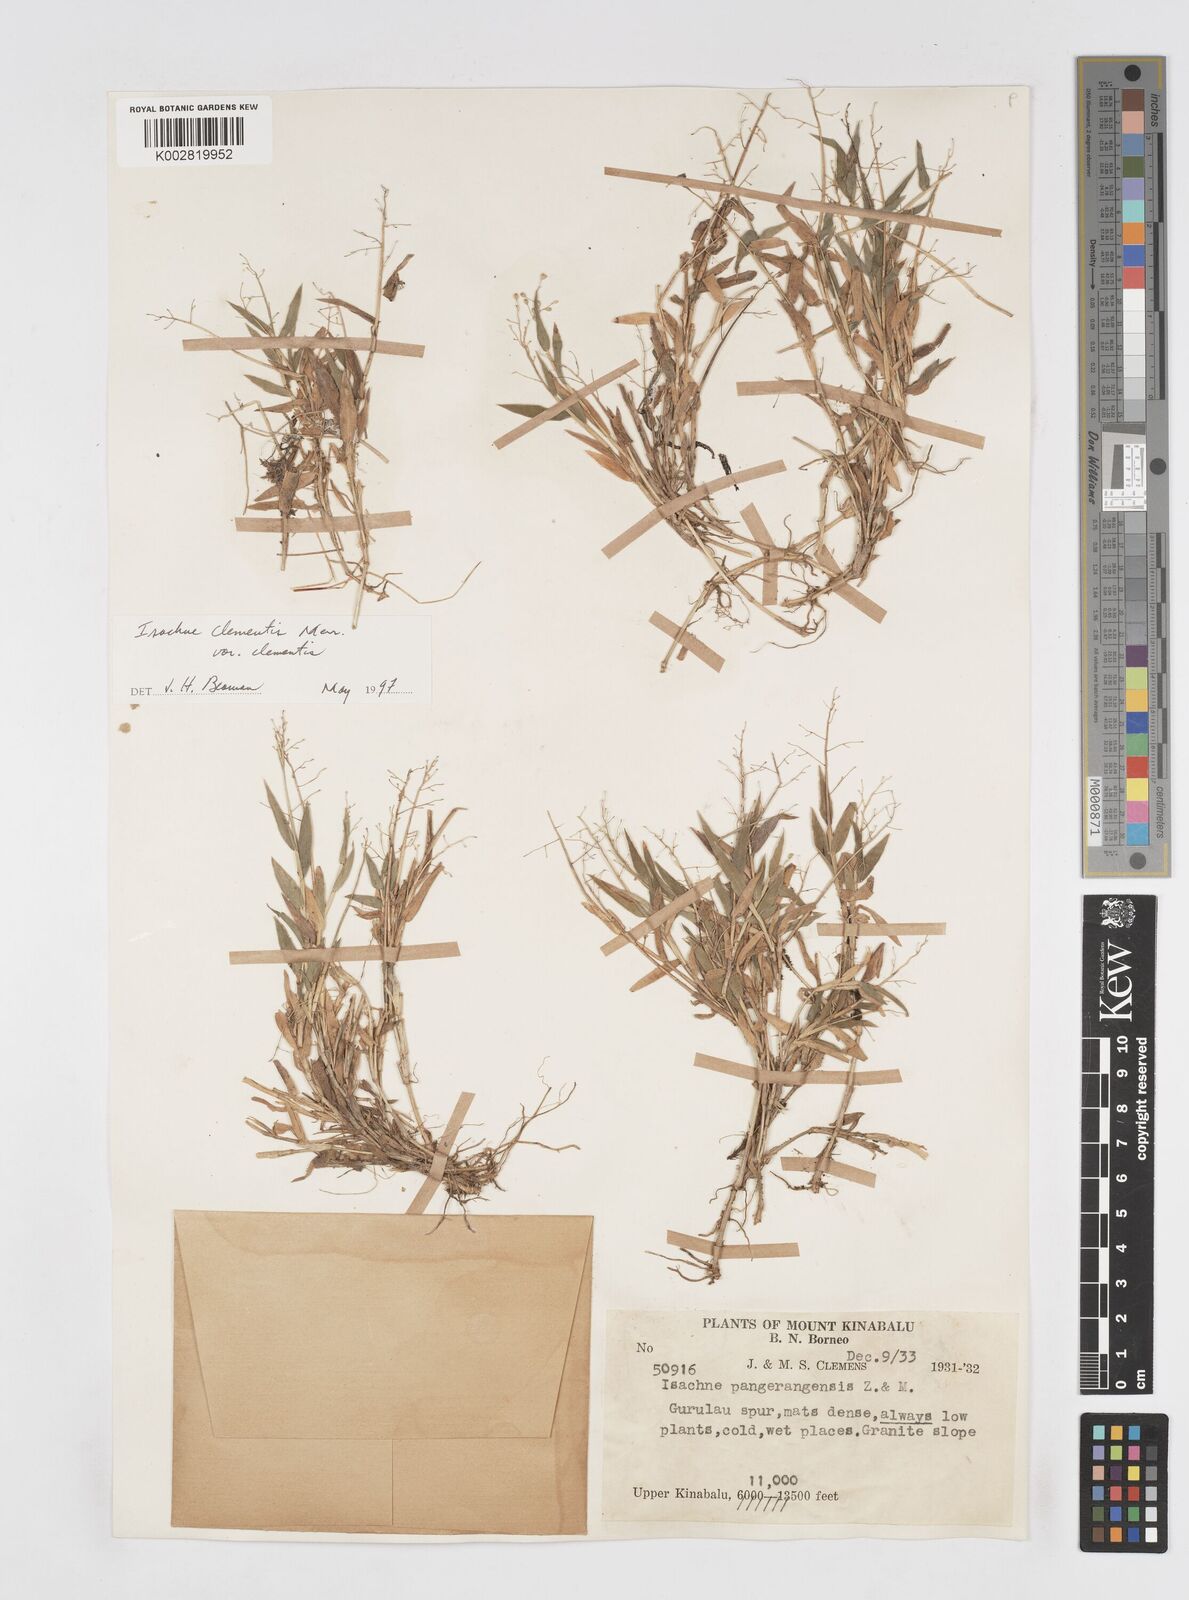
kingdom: Plantae
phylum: Tracheophyta
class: Liliopsida
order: Poales
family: Poaceae
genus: Isachne
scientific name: Isachne clementis
